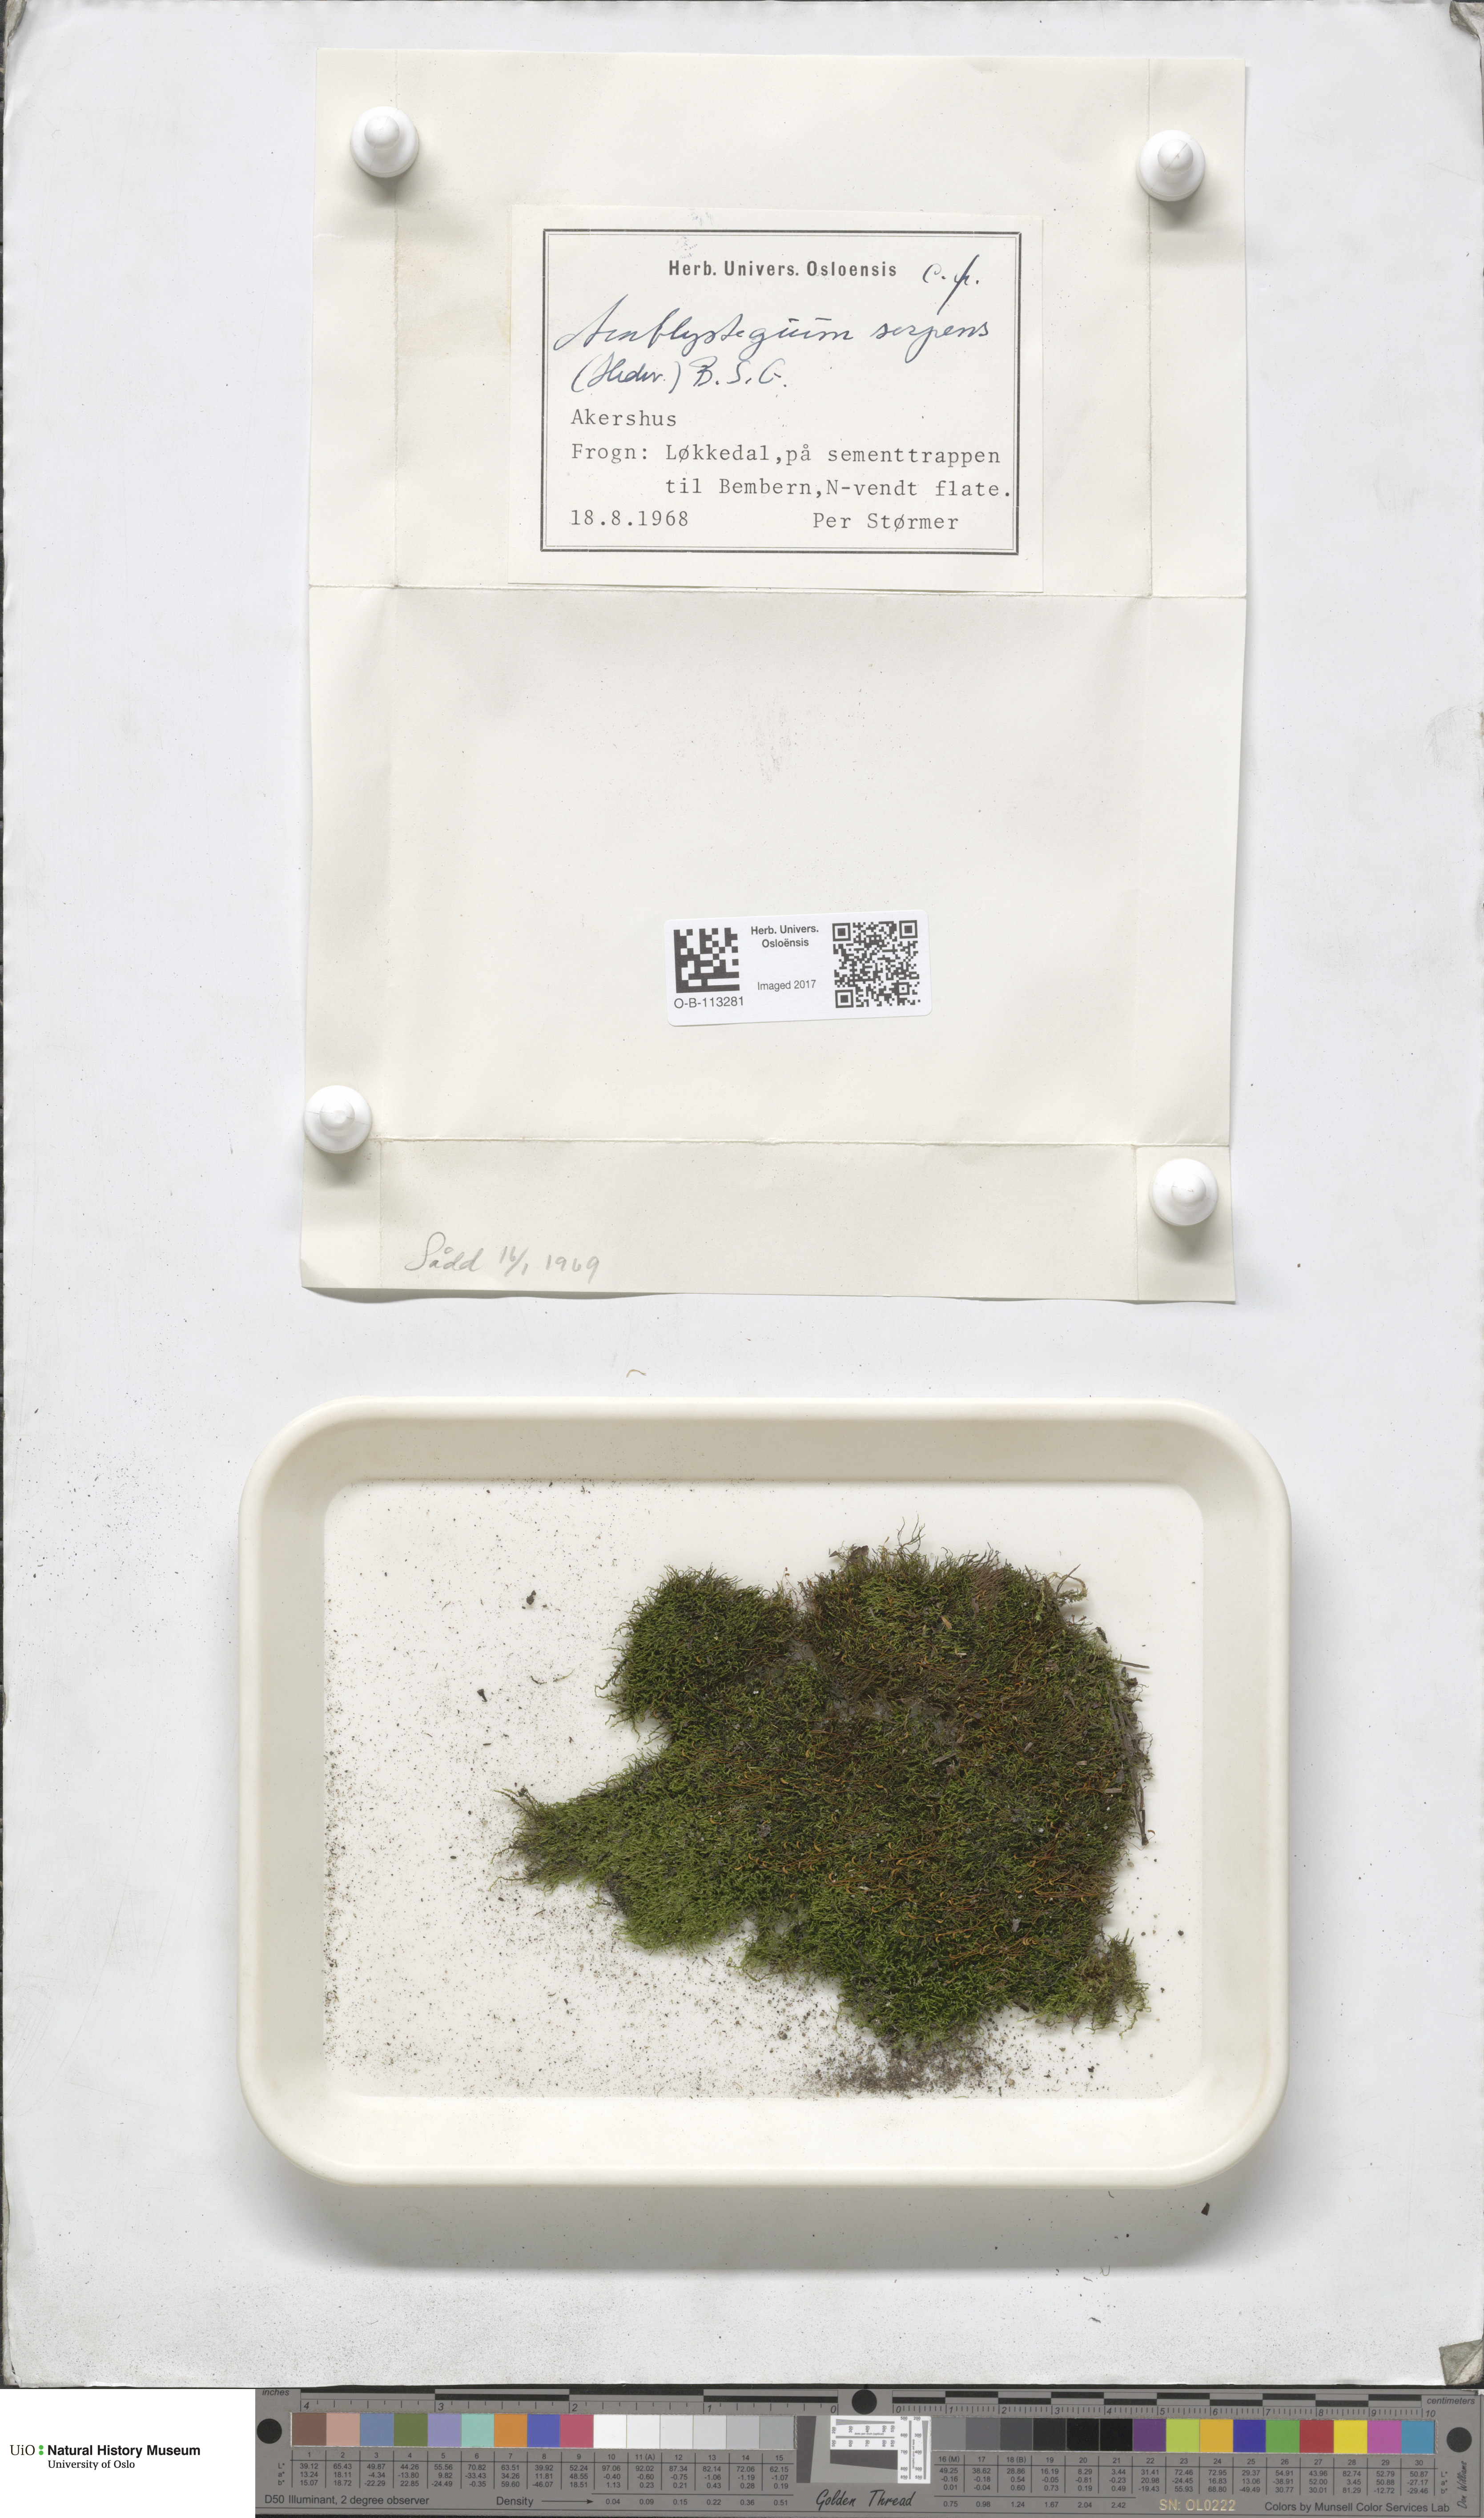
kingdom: Plantae
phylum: Bryophyta
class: Bryopsida
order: Hypnales
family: Amblystegiaceae
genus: Amblystegium
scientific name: Amblystegium serpens
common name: Jurkatzka's feather moss
